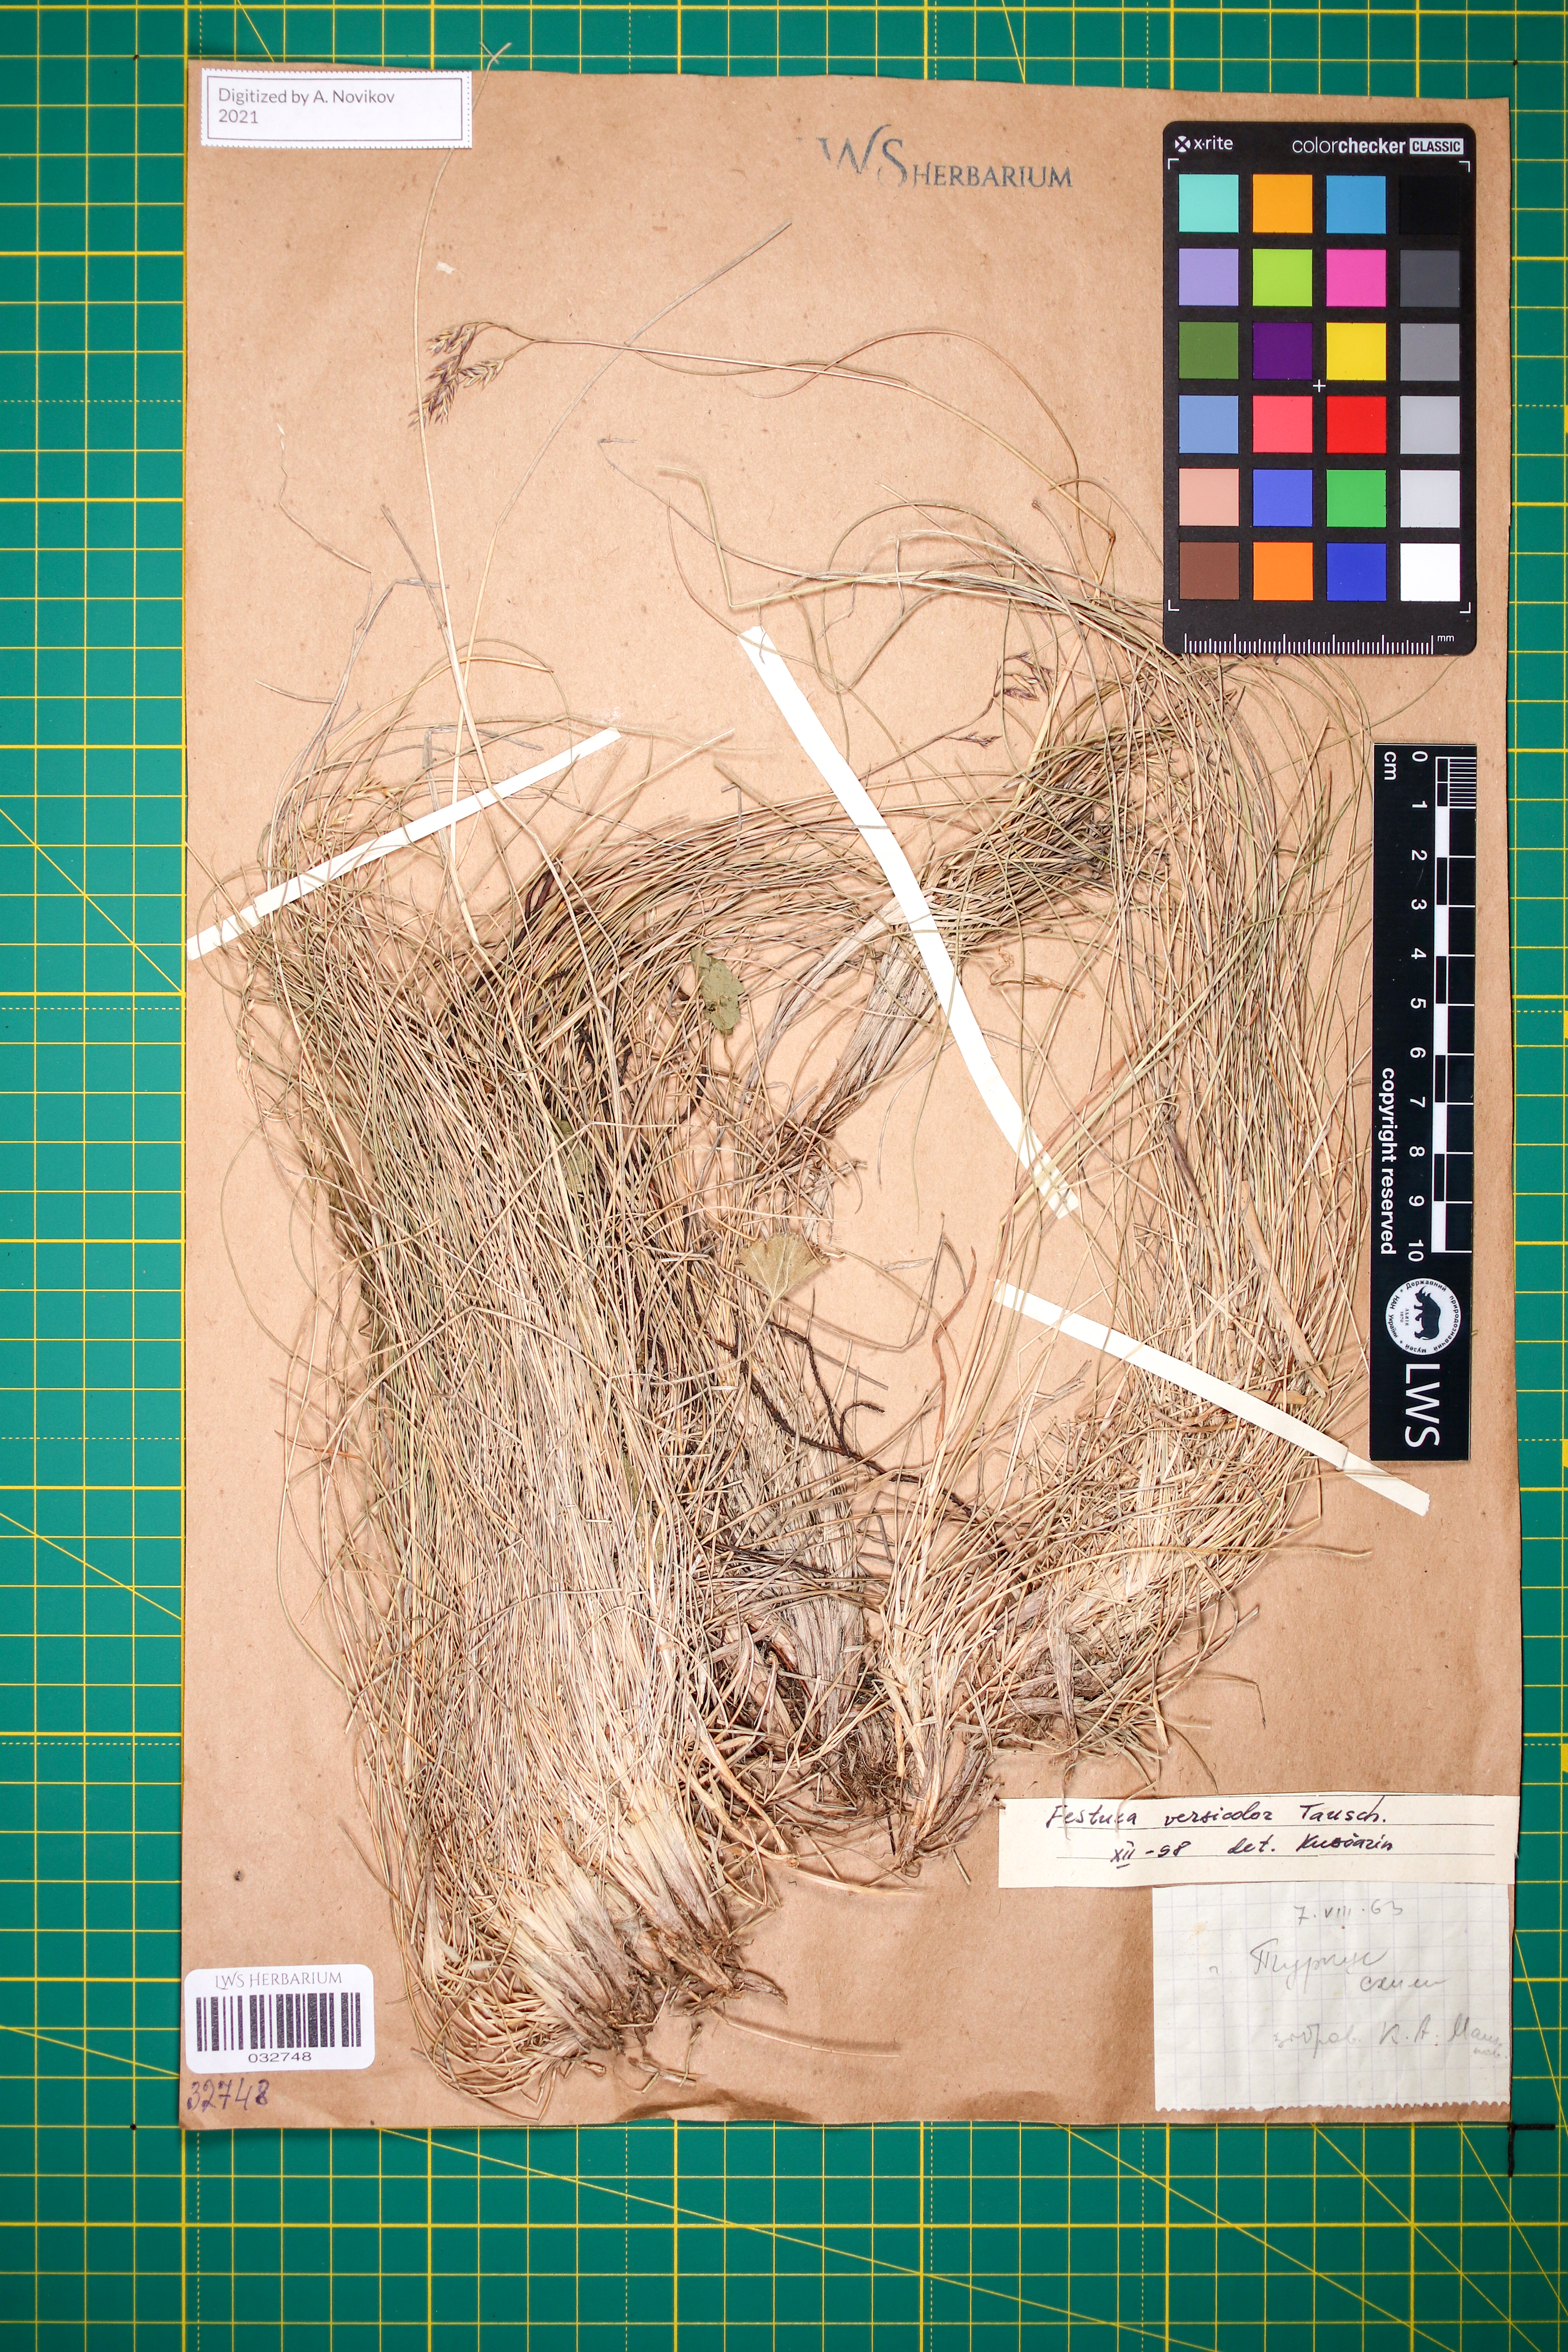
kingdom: Plantae
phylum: Tracheophyta
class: Liliopsida
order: Poales
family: Poaceae
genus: Festuca
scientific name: Festuca versicolor
